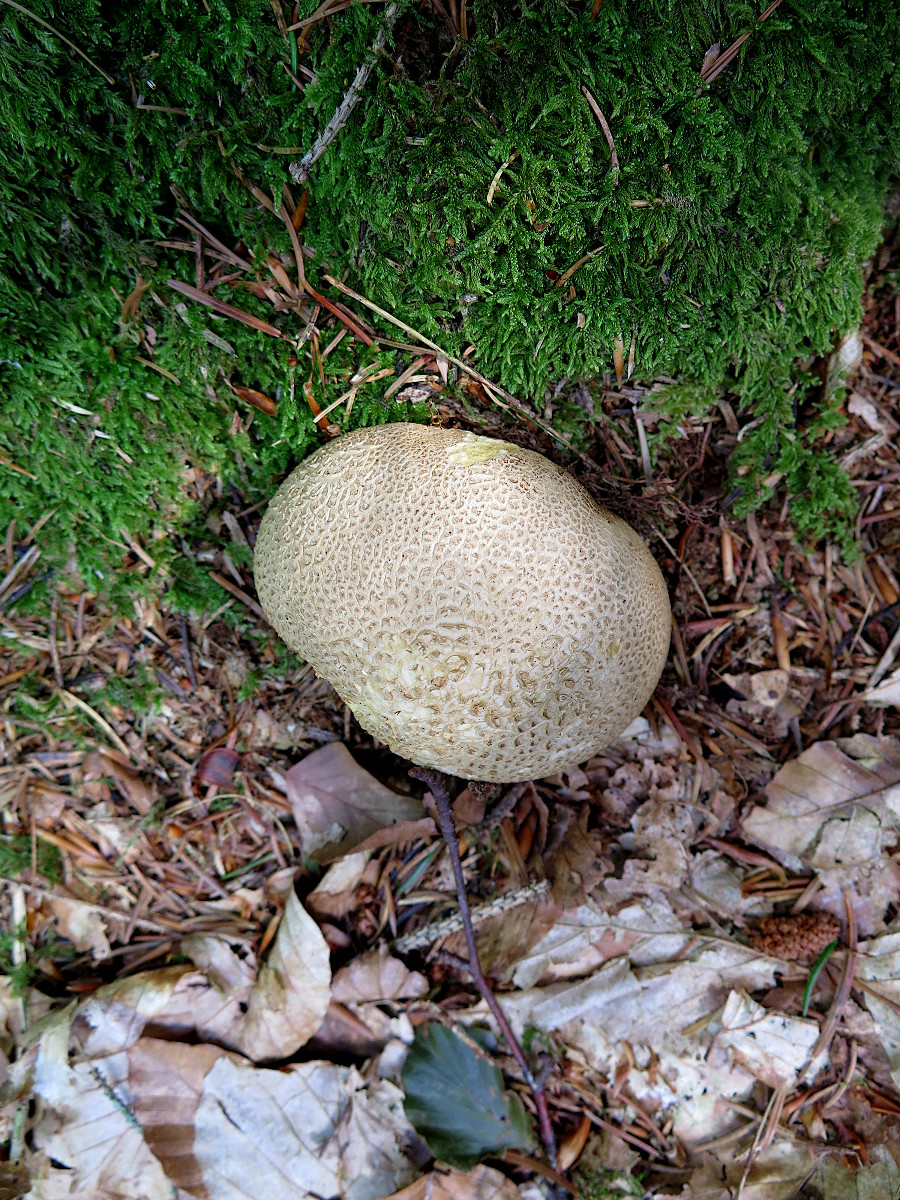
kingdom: Fungi
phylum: Basidiomycota
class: Agaricomycetes
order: Boletales
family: Sclerodermataceae
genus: Scleroderma
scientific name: Scleroderma citrinum
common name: almindelig bruskbold
